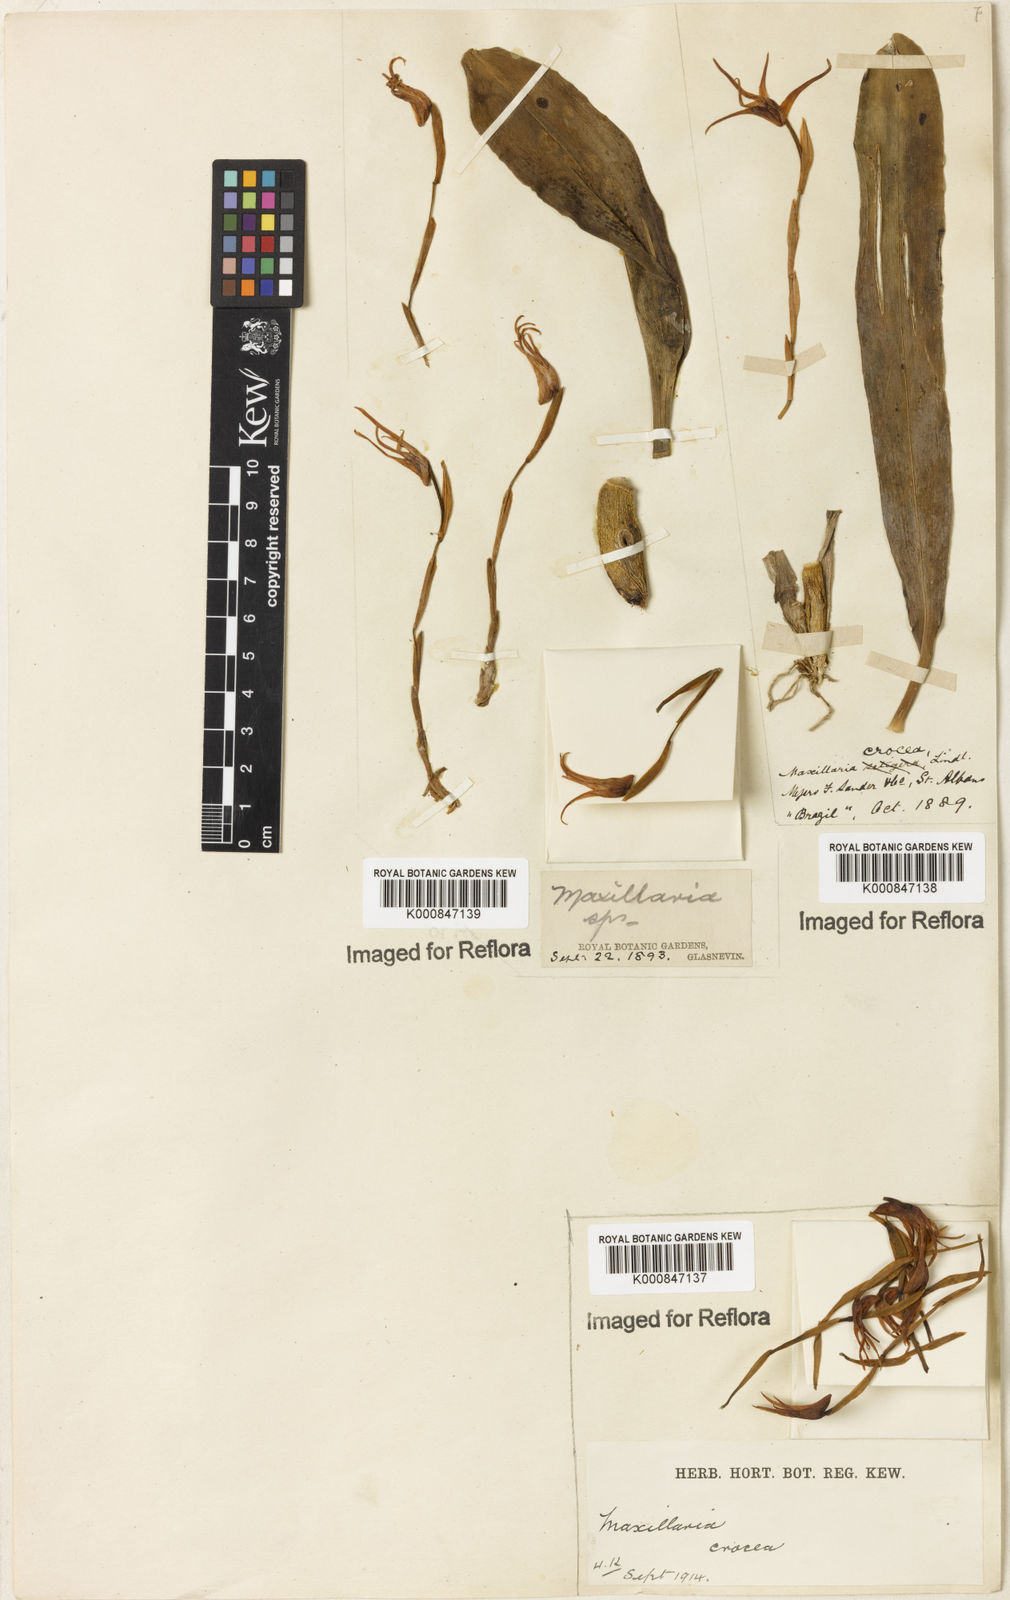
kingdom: Plantae
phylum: Tracheophyta
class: Liliopsida
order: Asparagales
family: Orchidaceae
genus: Maxillaria
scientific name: Maxillaria crocea
